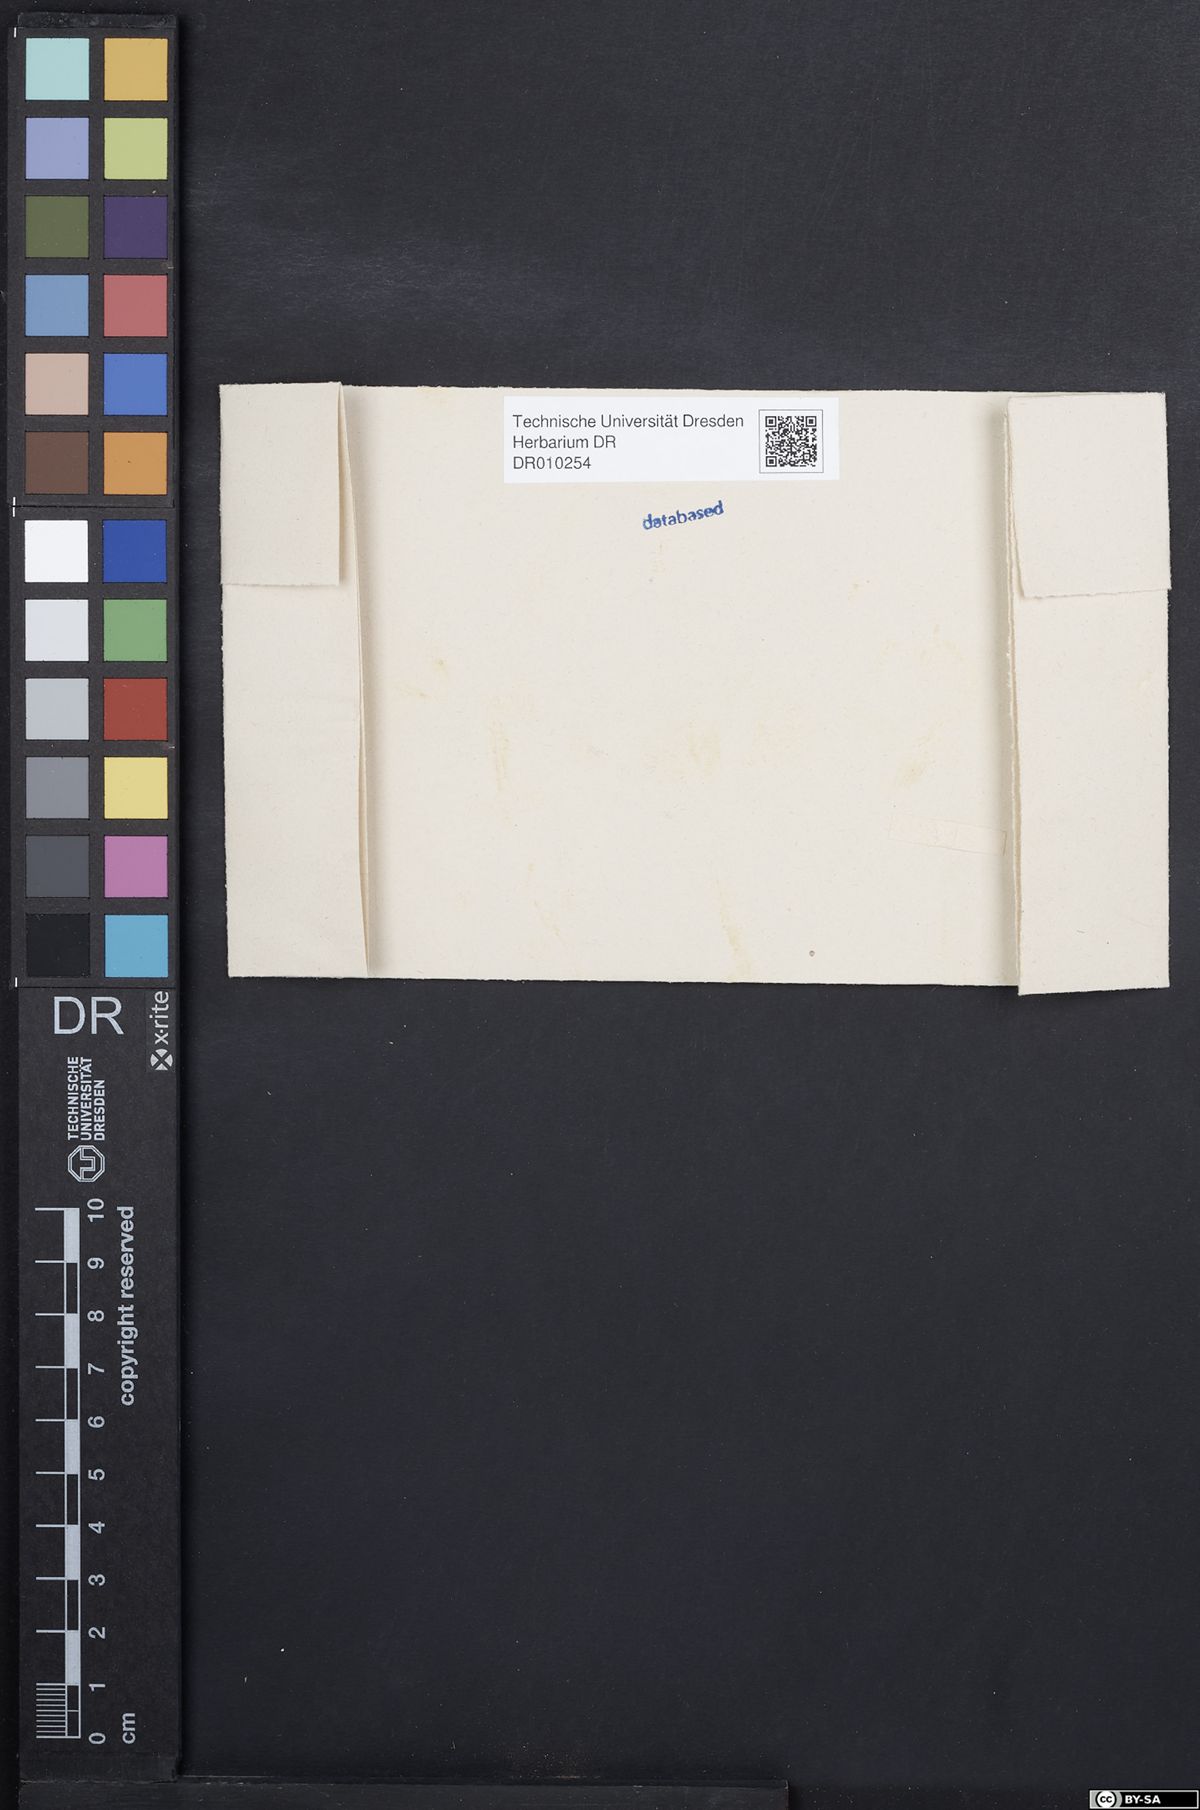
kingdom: Plantae
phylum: Tracheophyta
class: Magnoliopsida
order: Caryophyllales
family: Droseraceae
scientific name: Droseraceae
